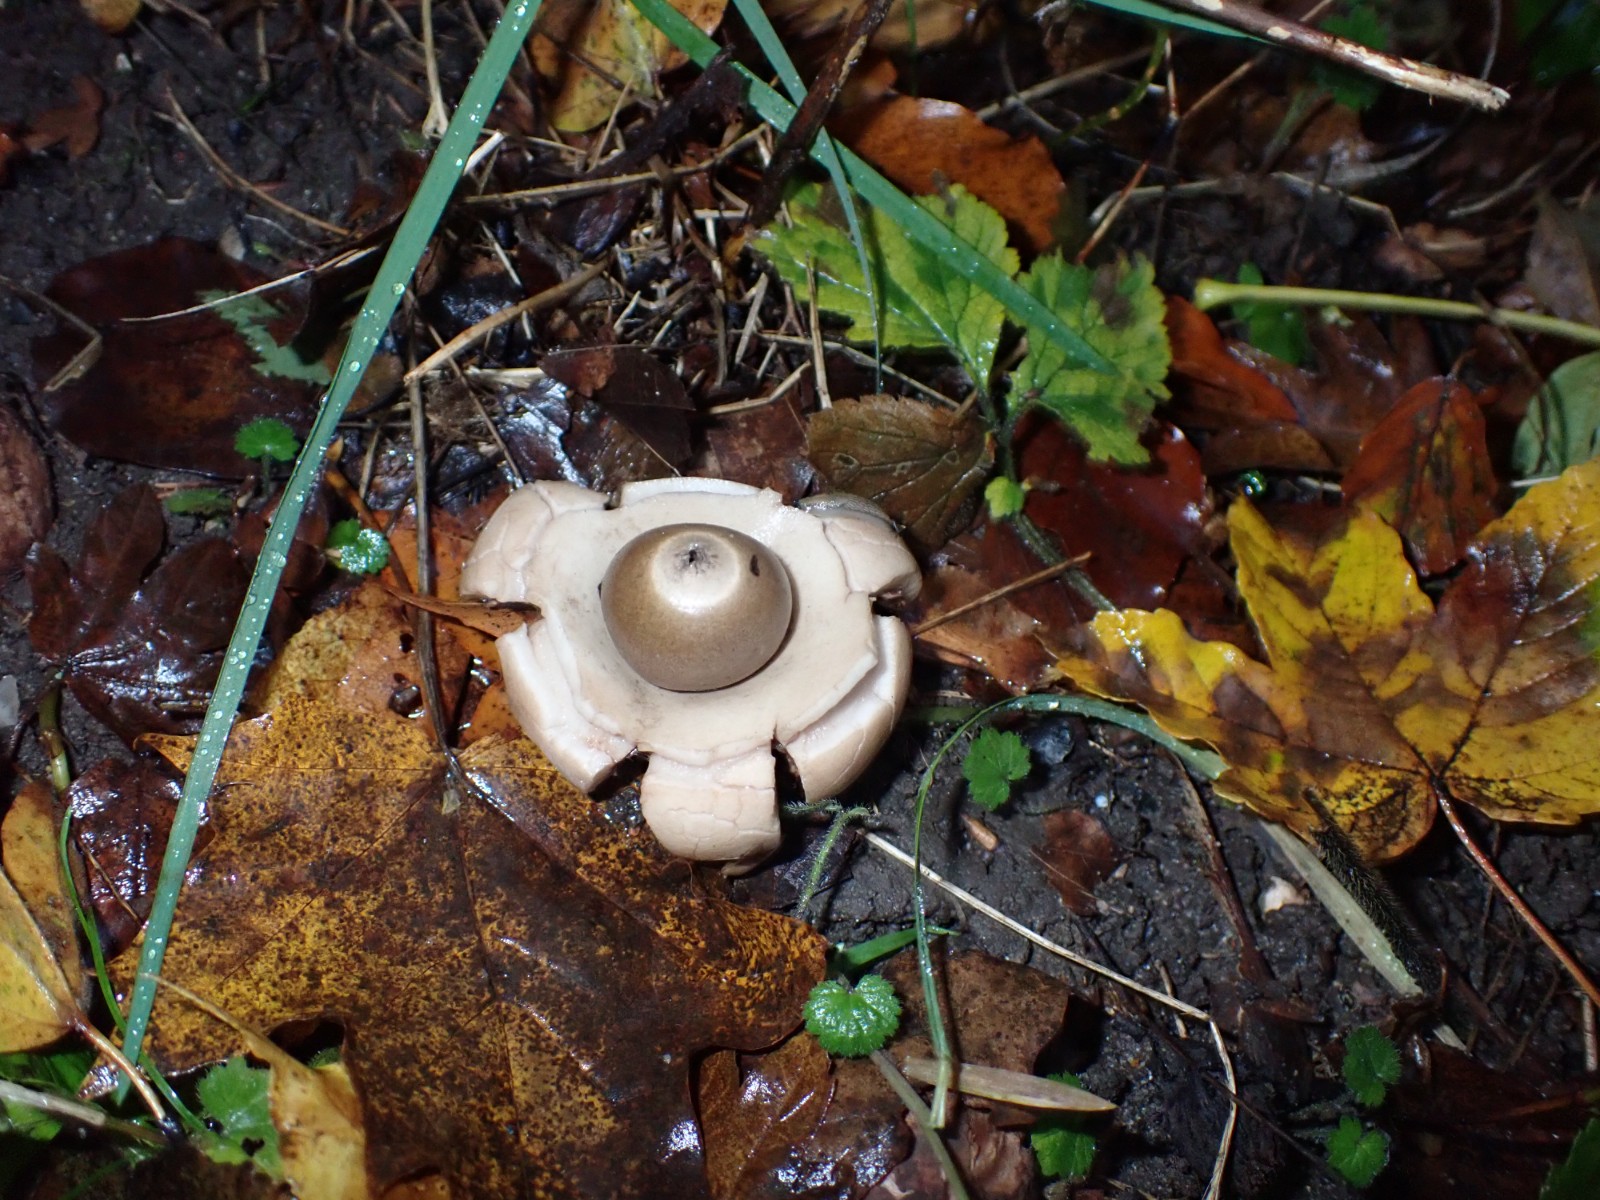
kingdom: Fungi
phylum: Basidiomycota
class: Agaricomycetes
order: Geastrales
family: Geastraceae
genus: Geastrum
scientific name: Geastrum michelianum
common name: kødet stjernebold
